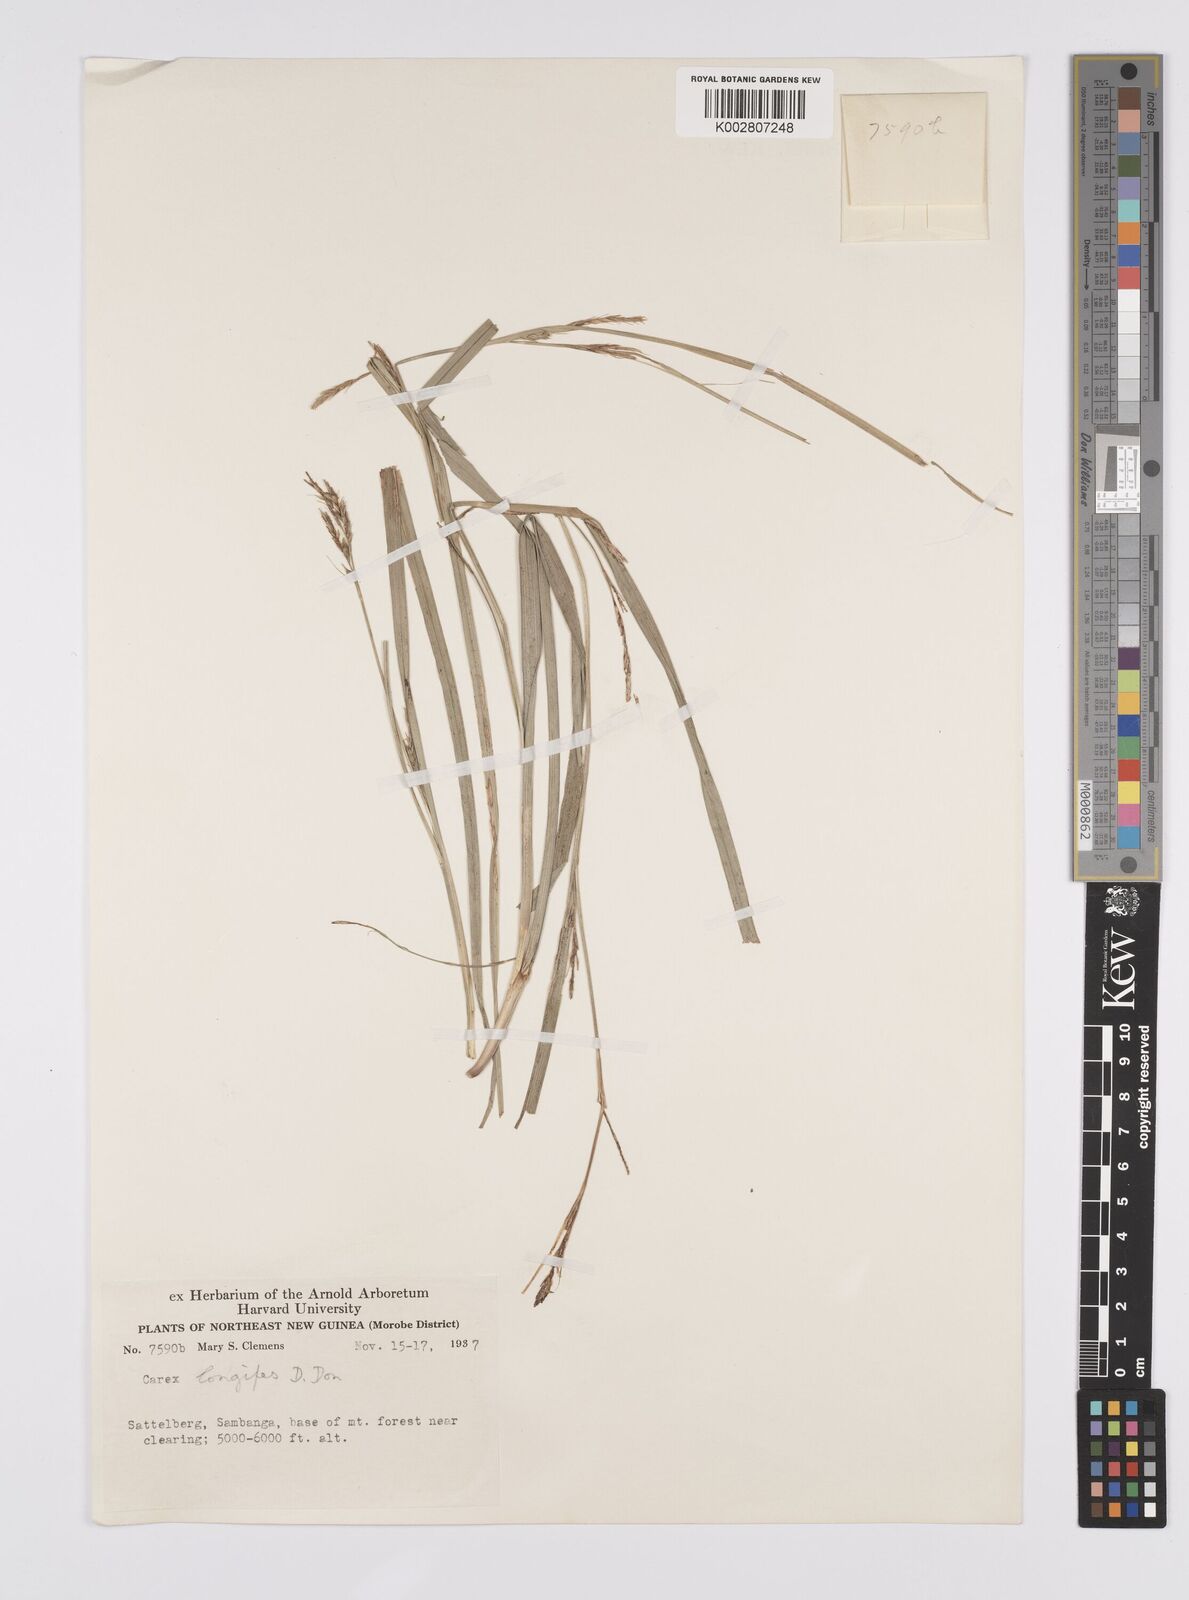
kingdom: Plantae
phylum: Tracheophyta
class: Liliopsida
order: Poales
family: Cyperaceae
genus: Carex
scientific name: Carex longipes
